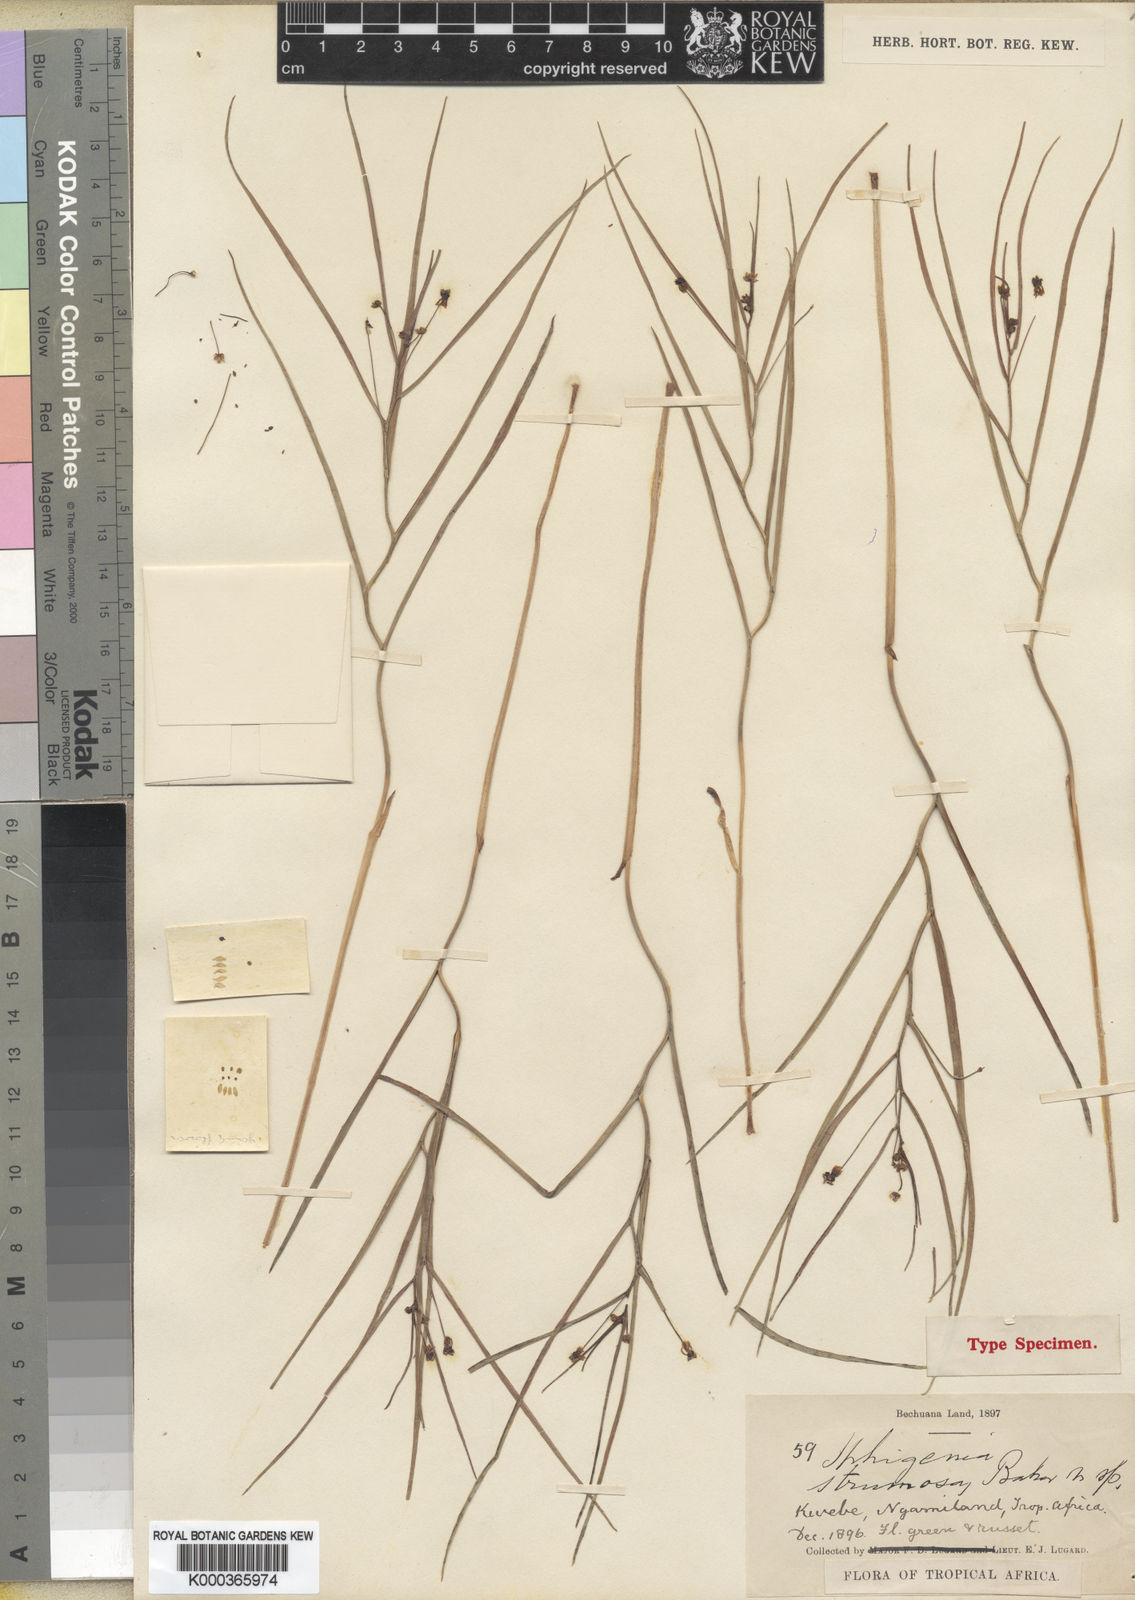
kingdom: Plantae
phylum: Tracheophyta
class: Liliopsida
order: Liliales
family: Colchicaceae
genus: Camptorrhiza
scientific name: Camptorrhiza strumosa
